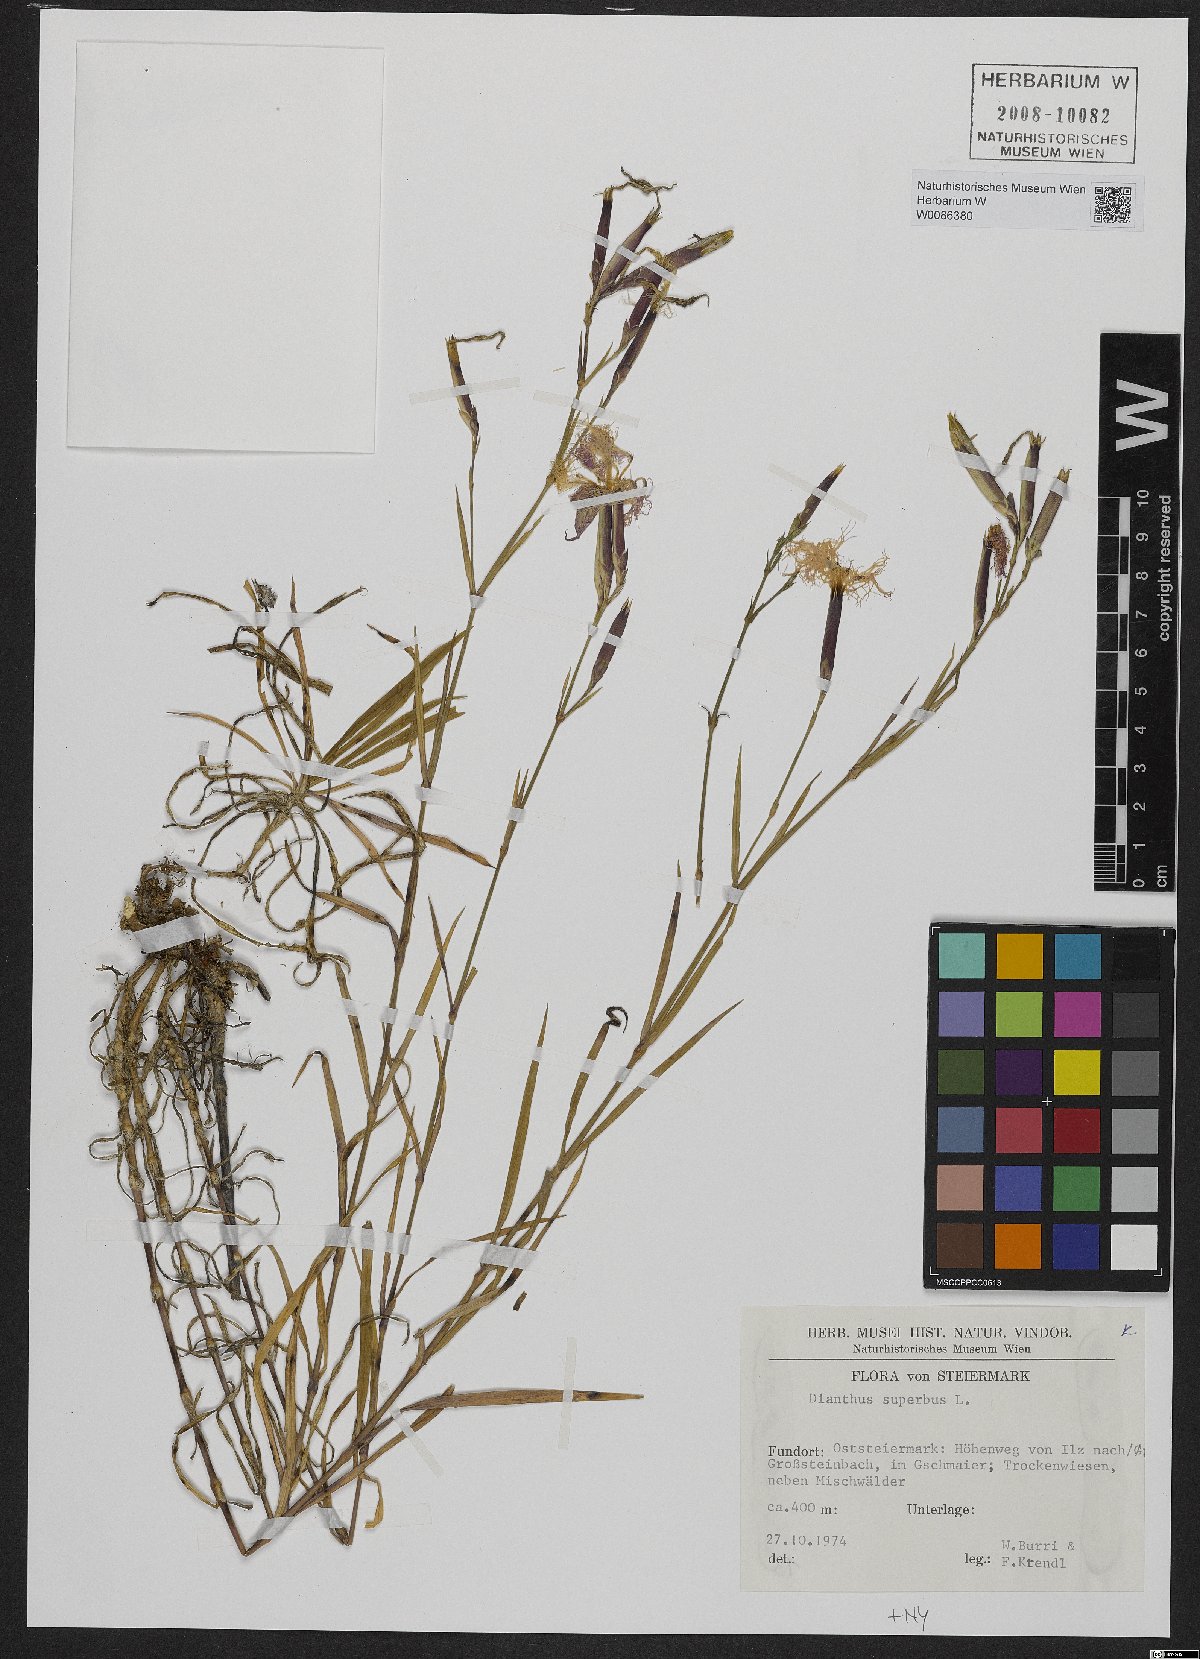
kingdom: Plantae
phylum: Tracheophyta
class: Magnoliopsida
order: Caryophyllales
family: Caryophyllaceae
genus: Dianthus
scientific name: Dianthus superbus
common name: Fringed pink
